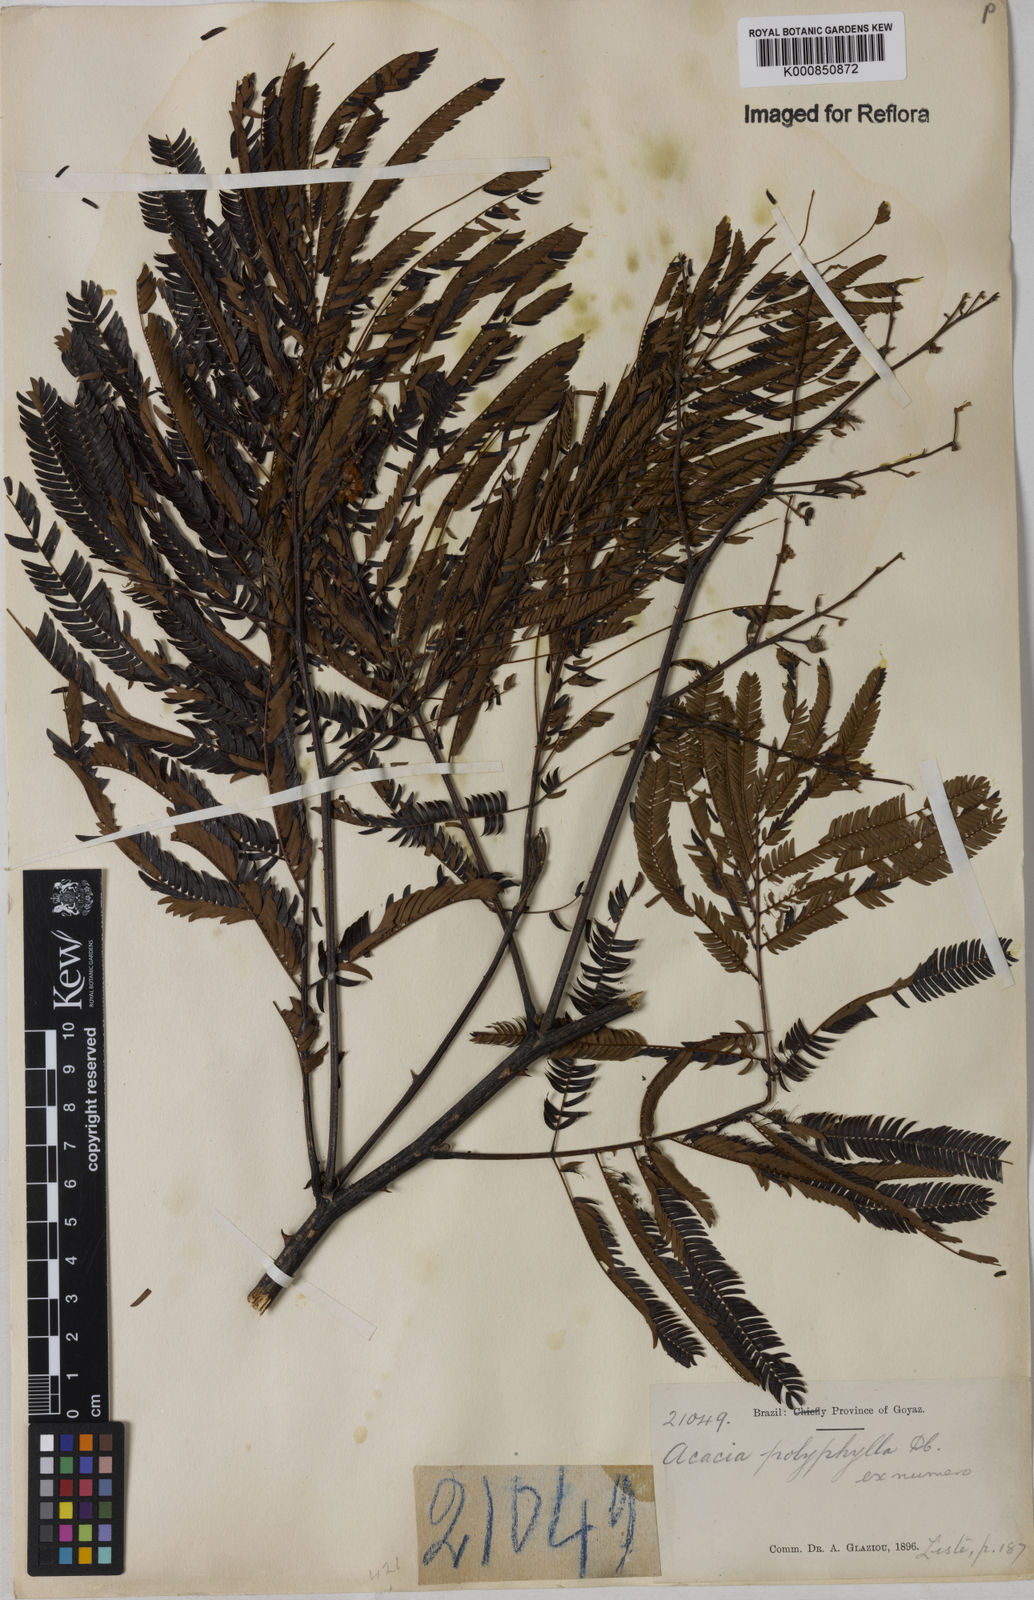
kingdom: Plantae
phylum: Tracheophyta
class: Magnoliopsida
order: Fabales
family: Fabaceae
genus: Senegalia
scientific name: Senegalia polyphylla
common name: White-tamarind
